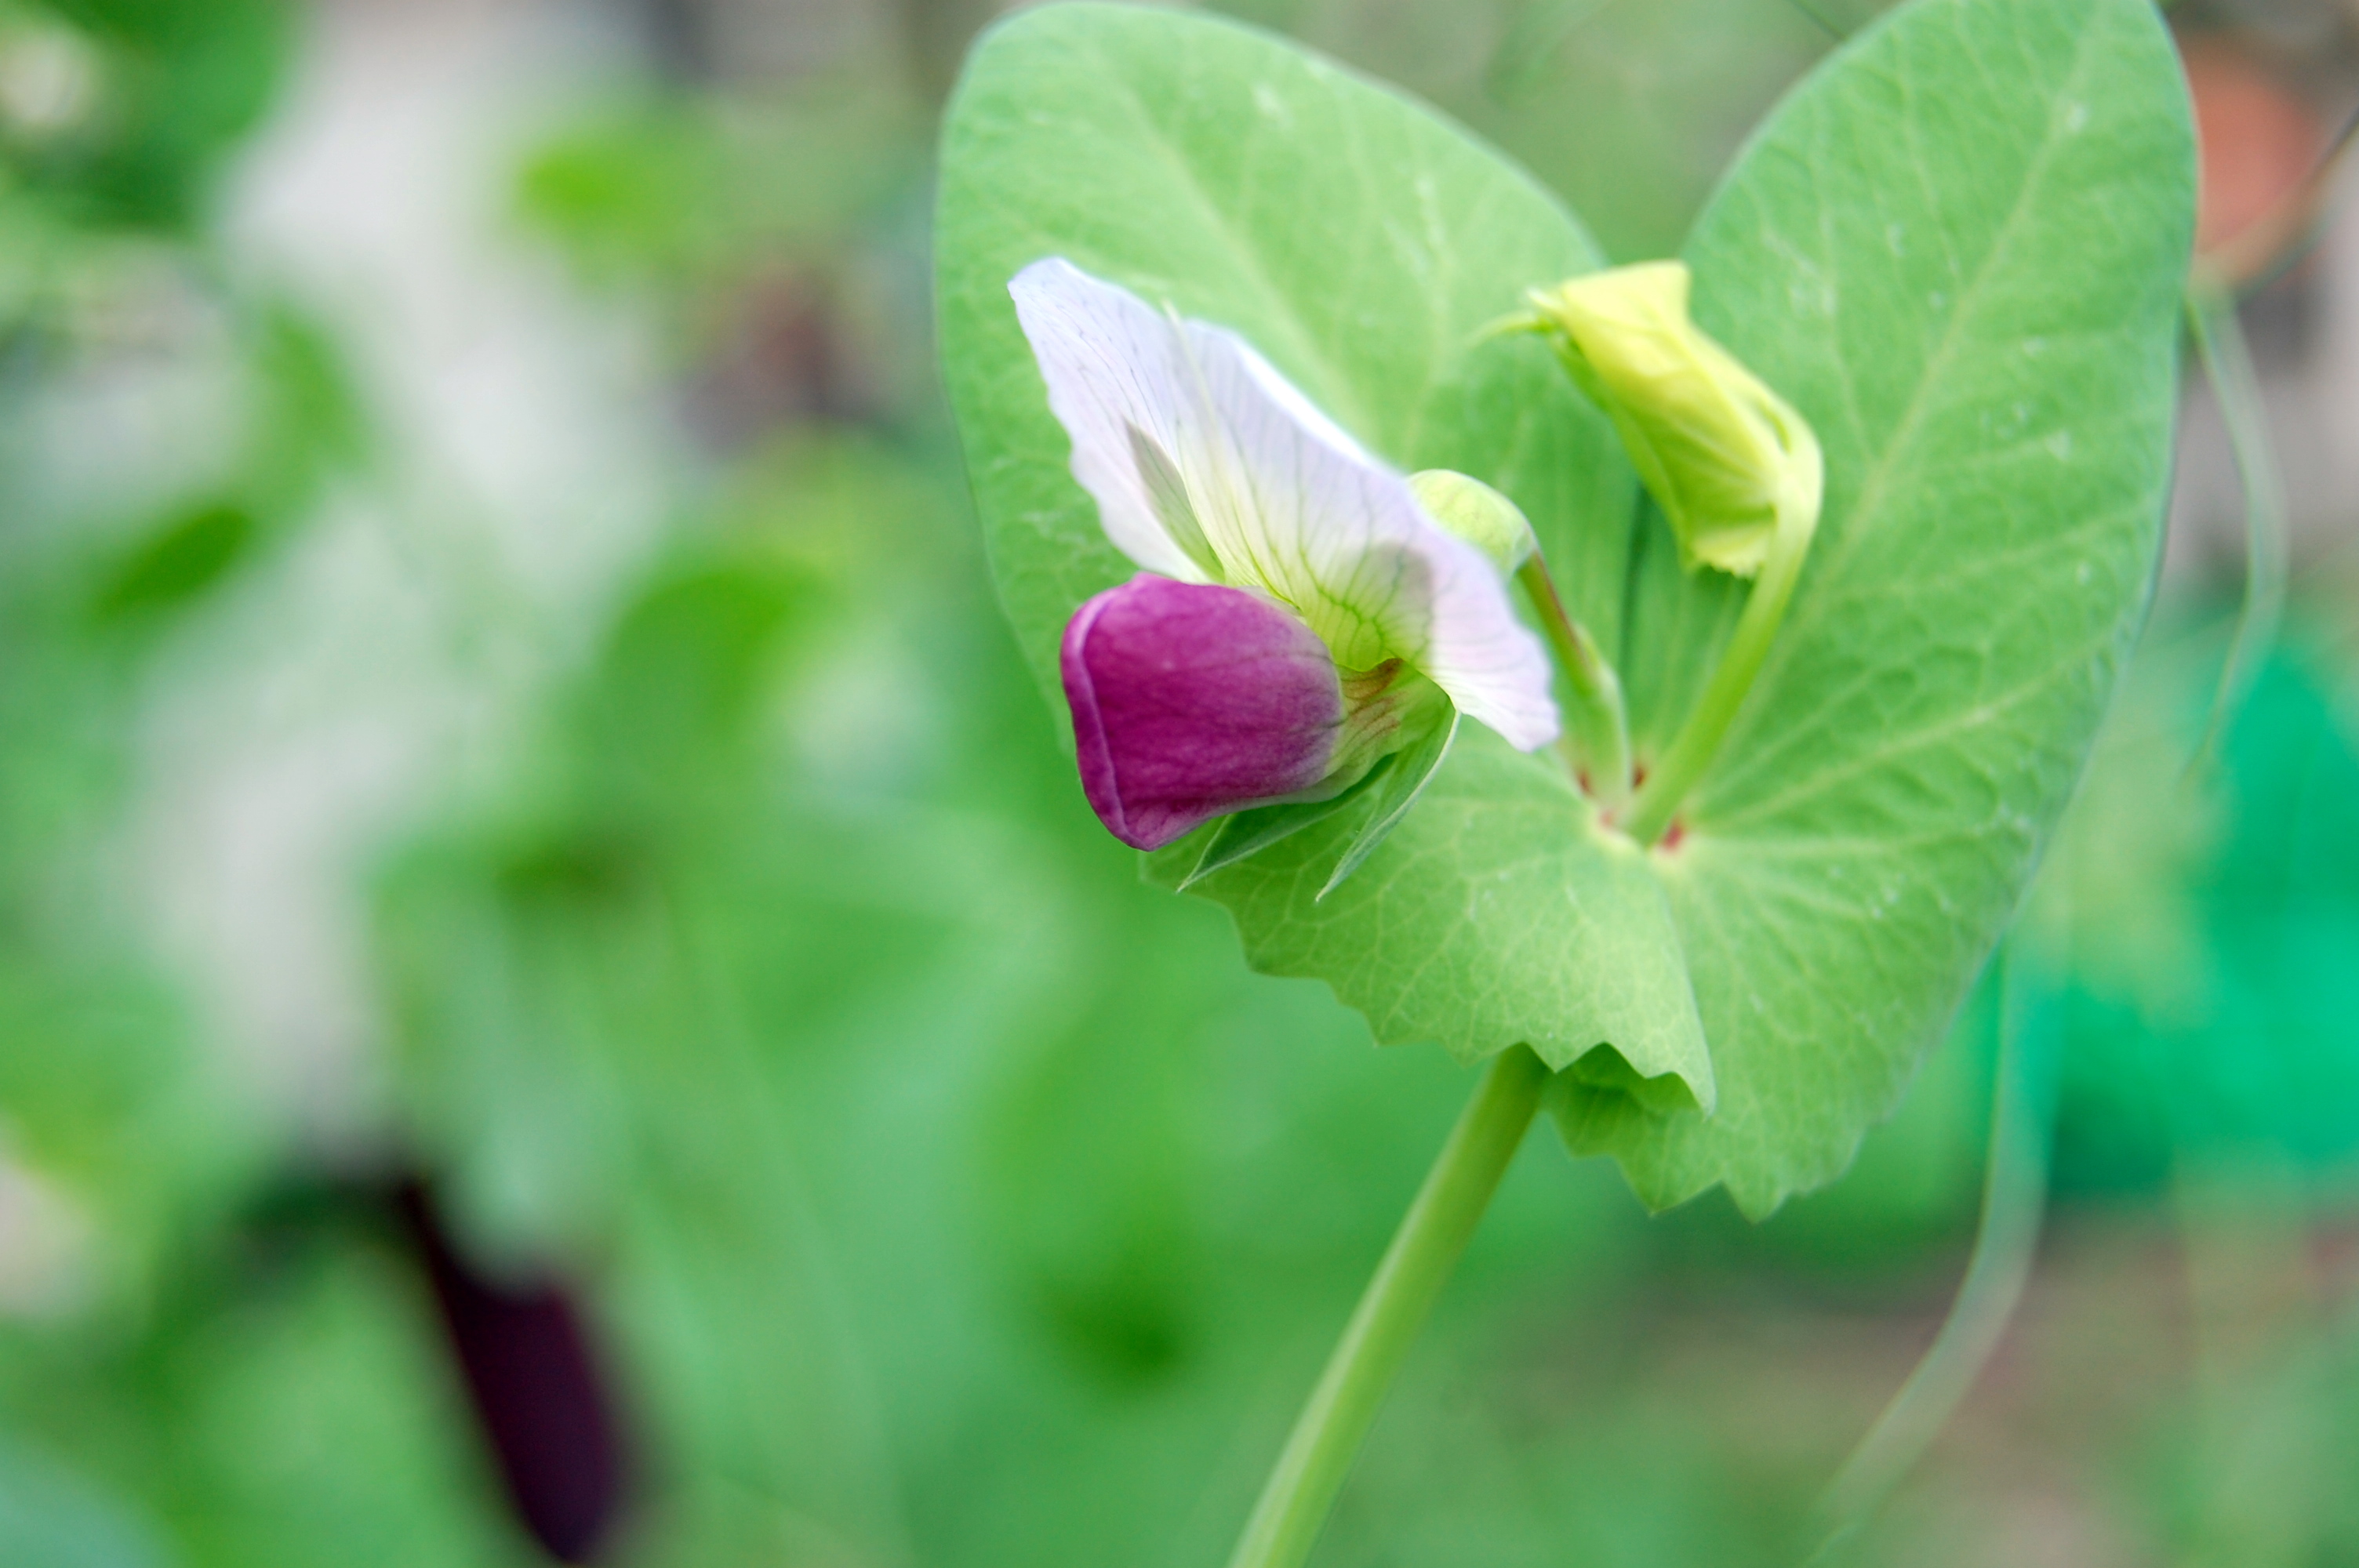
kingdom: Plantae
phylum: Tracheophyta
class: Magnoliopsida
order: Fabales
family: Fabaceae
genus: Lathyrus
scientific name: Lathyrus oleraceus
